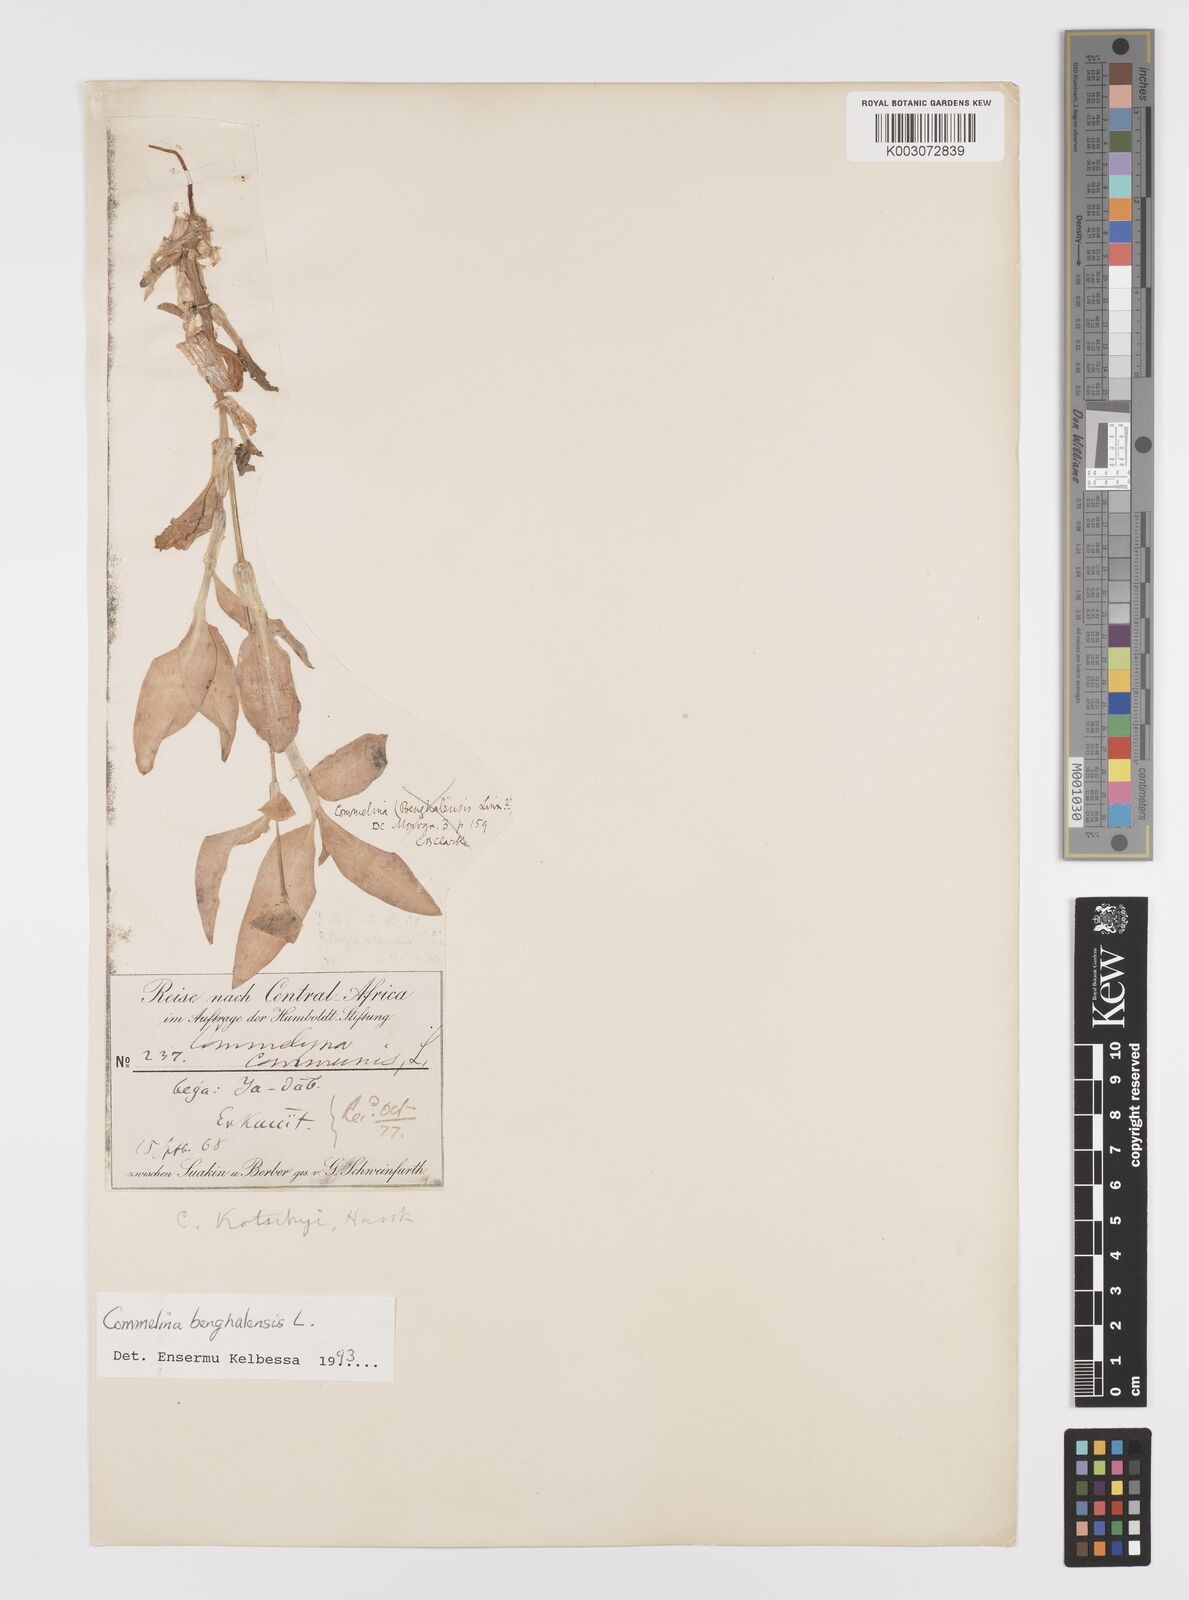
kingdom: Plantae
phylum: Tracheophyta
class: Liliopsida
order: Commelinales
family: Commelinaceae
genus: Commelina
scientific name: Commelina benghalensis
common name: Jio
